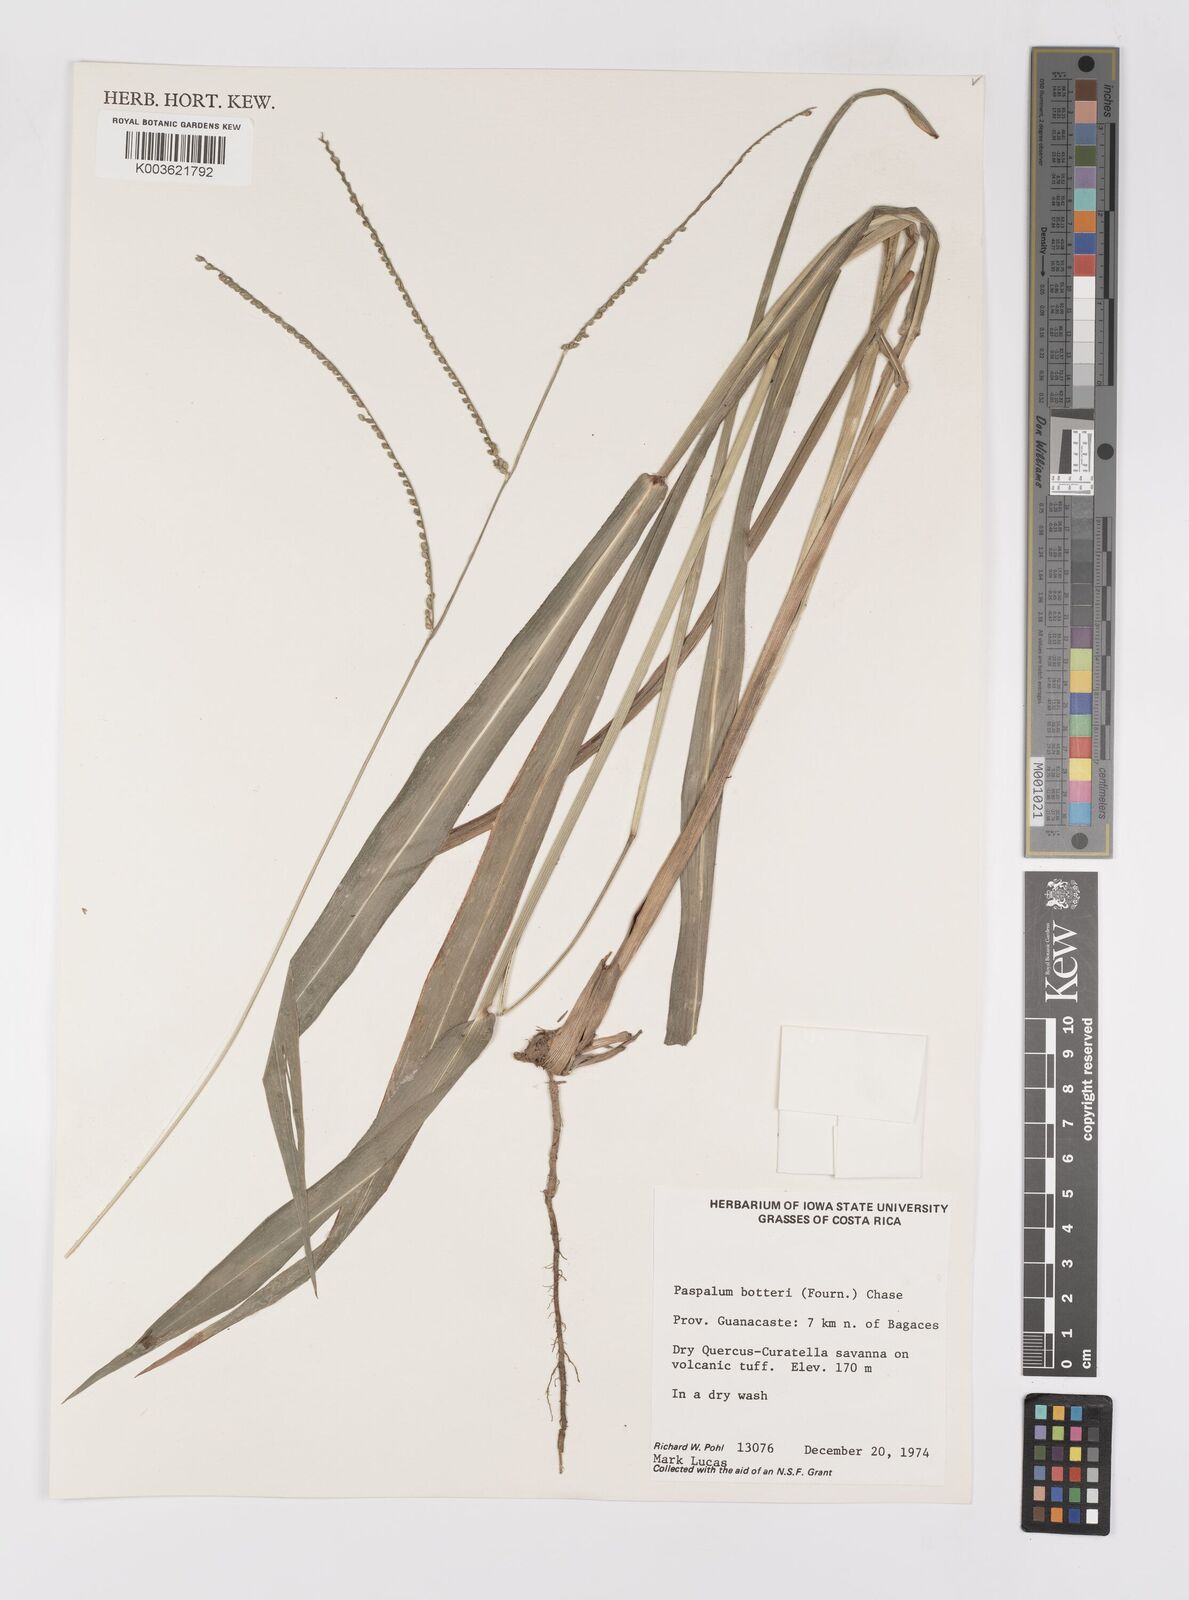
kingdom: Plantae
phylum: Tracheophyta
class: Liliopsida
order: Poales
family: Poaceae
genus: Paspalum
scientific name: Paspalum botterii
